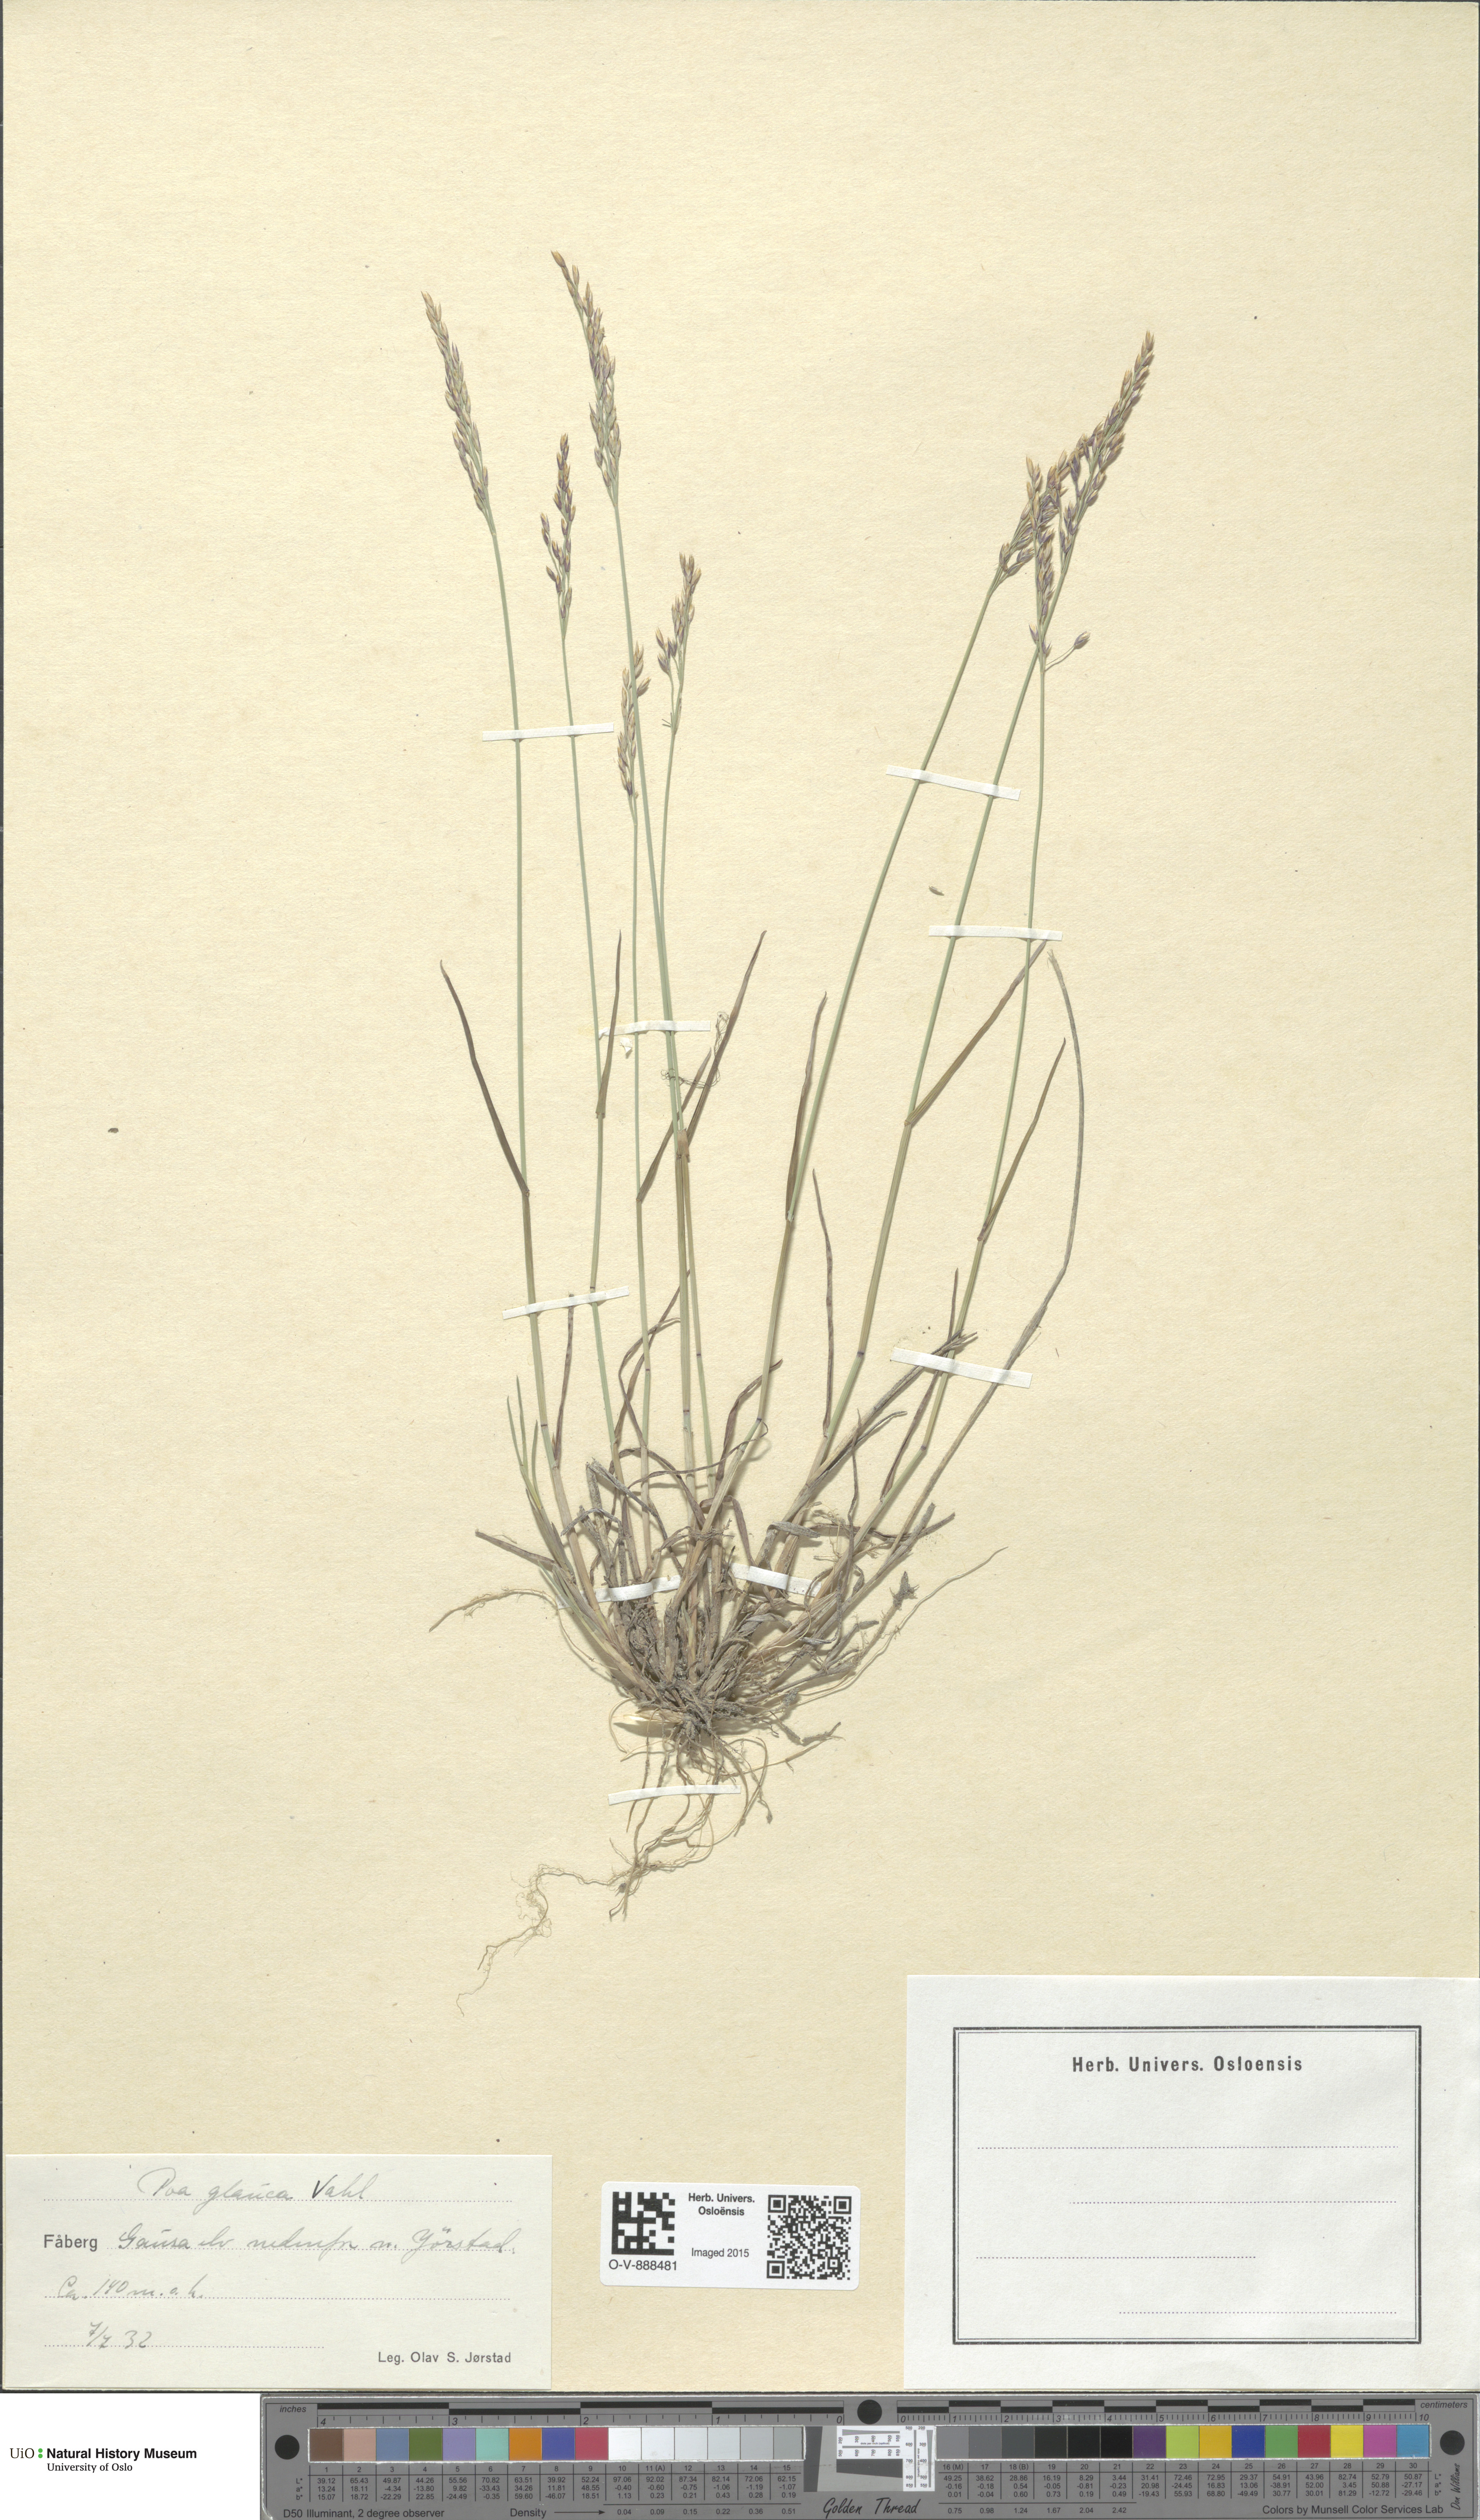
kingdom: Plantae
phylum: Tracheophyta
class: Liliopsida
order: Poales
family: Poaceae
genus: Poa
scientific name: Poa glauca
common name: Glaucous bluegrass
